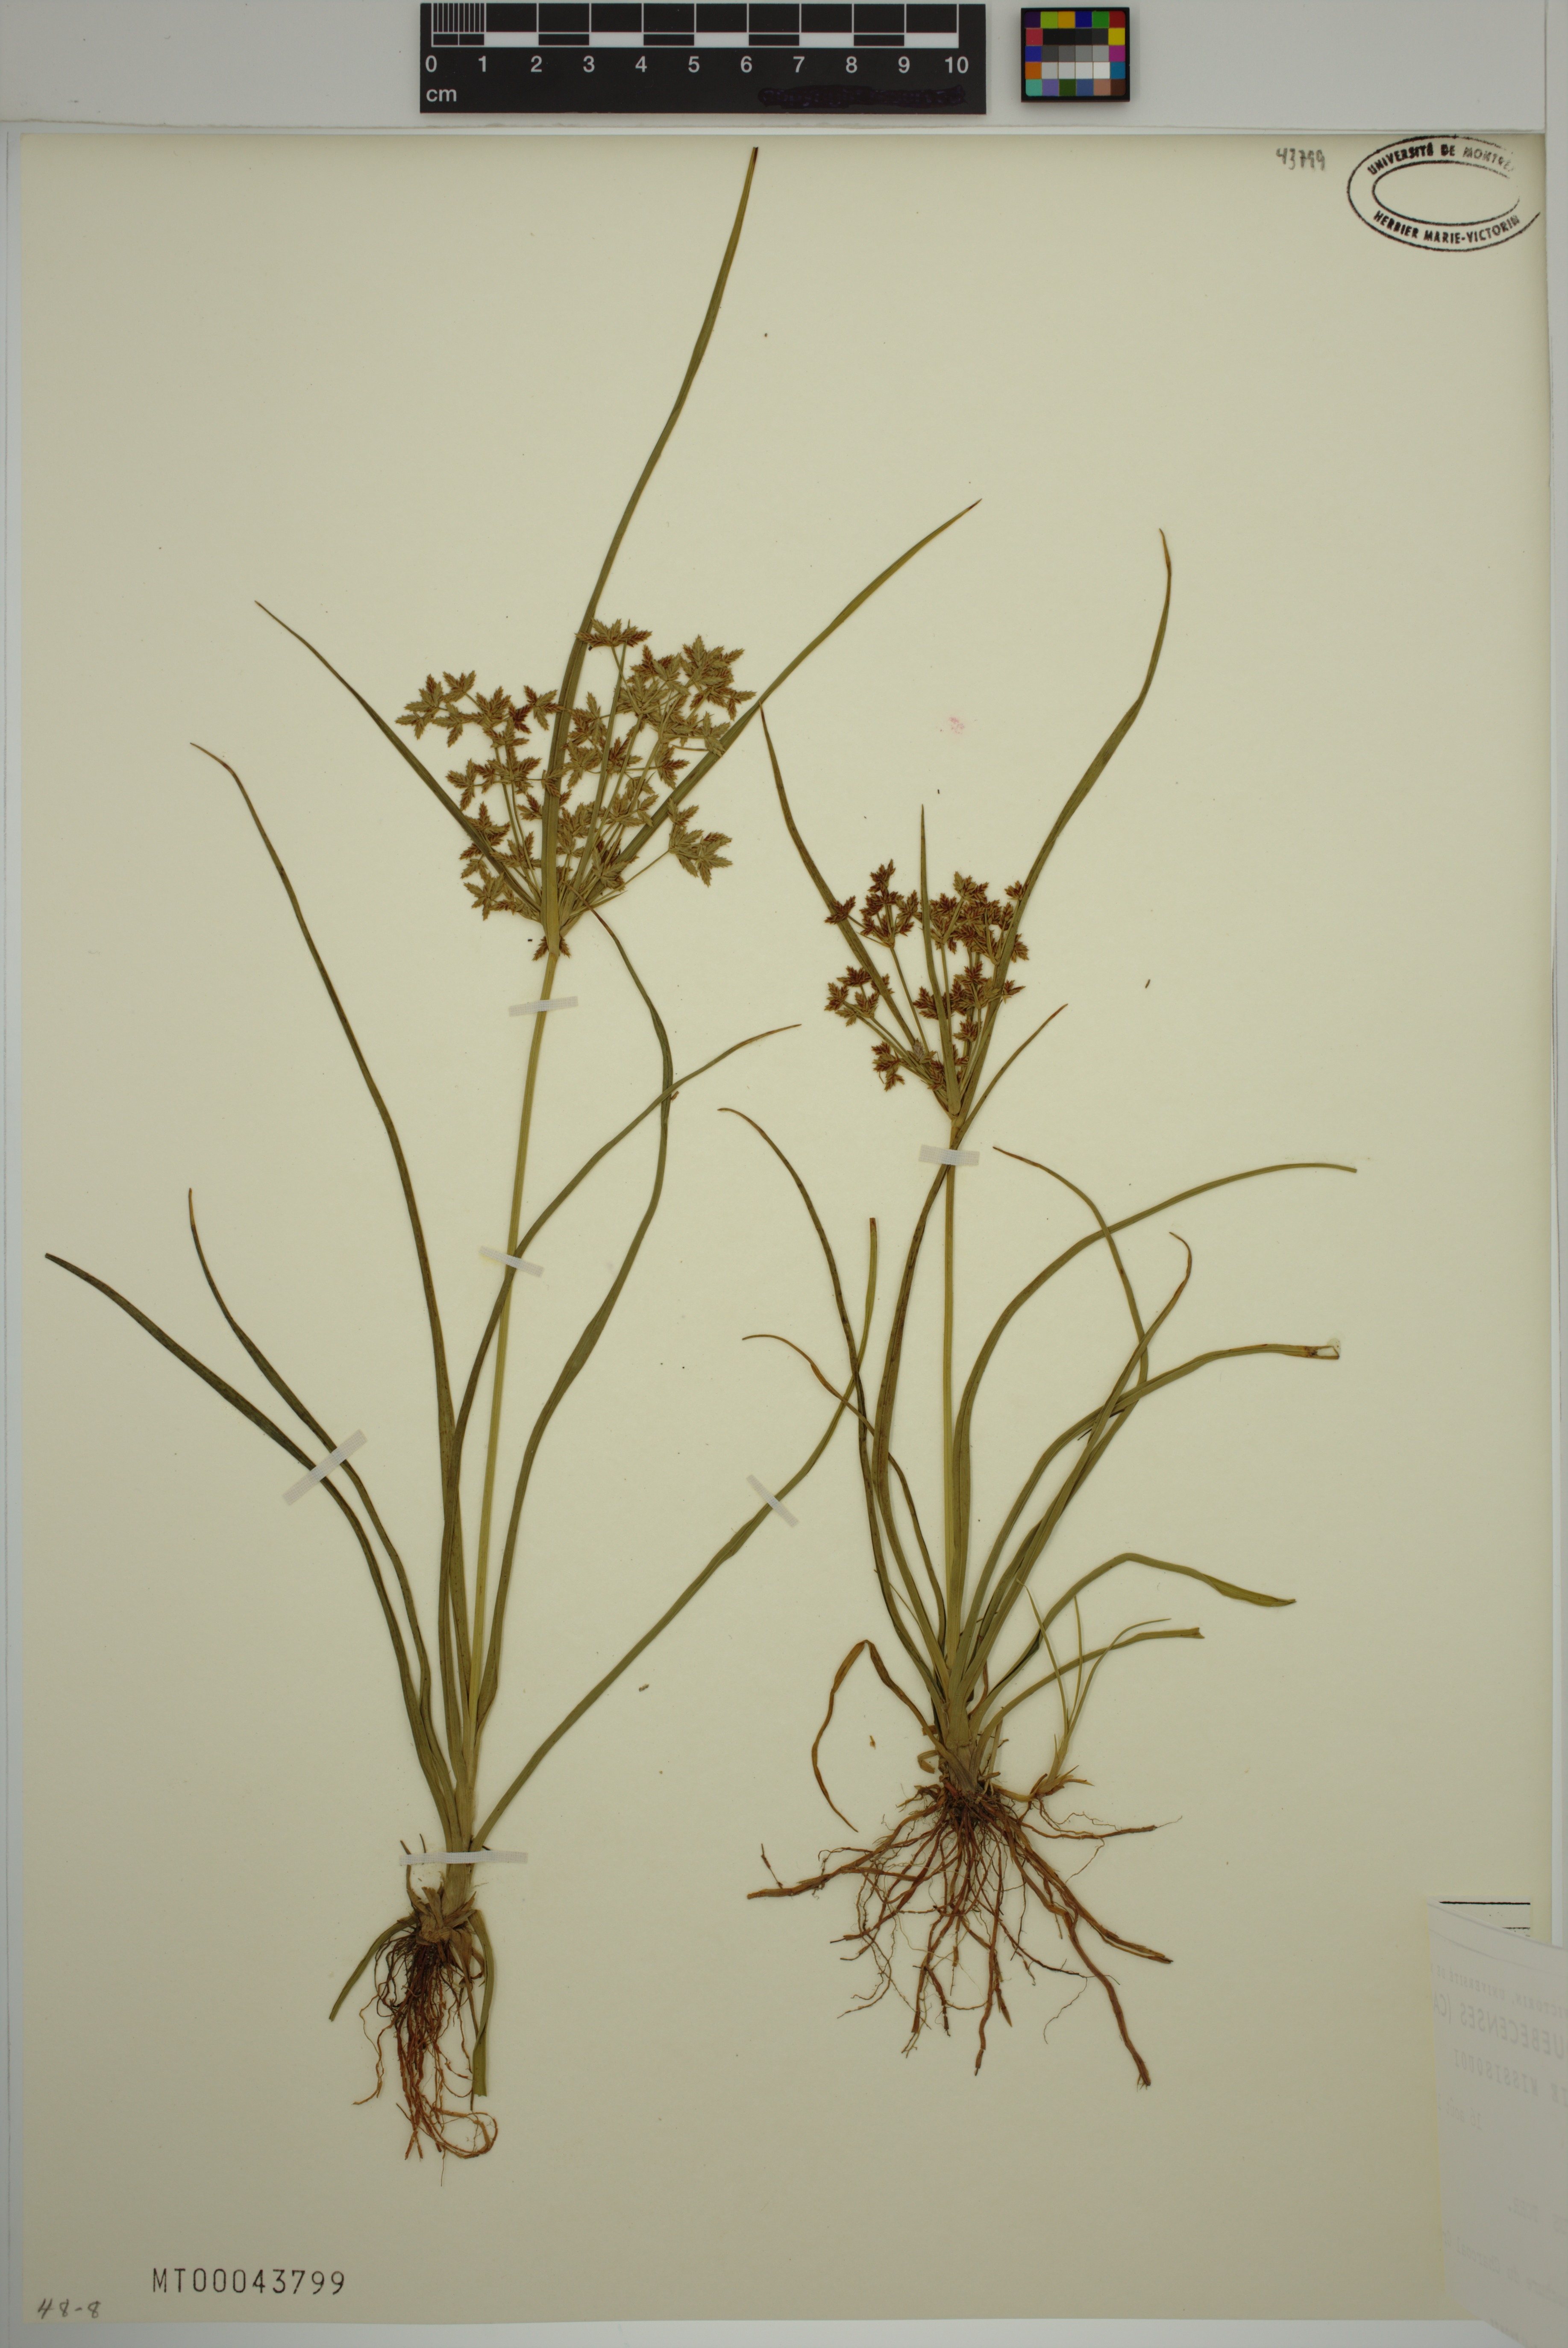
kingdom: Plantae
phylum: Tracheophyta
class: Liliopsida
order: Poales
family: Cyperaceae
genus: Cyperus
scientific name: Cyperus dentatus
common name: Dentate umbrella sedge
